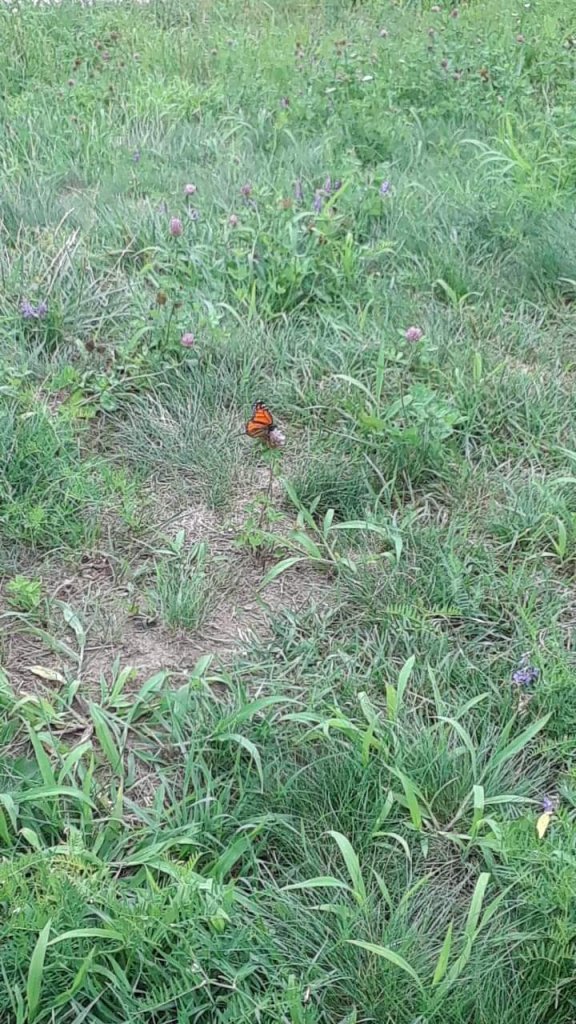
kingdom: Animalia
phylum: Arthropoda
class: Insecta
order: Lepidoptera
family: Nymphalidae
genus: Danaus
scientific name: Danaus plexippus
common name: Monarch
